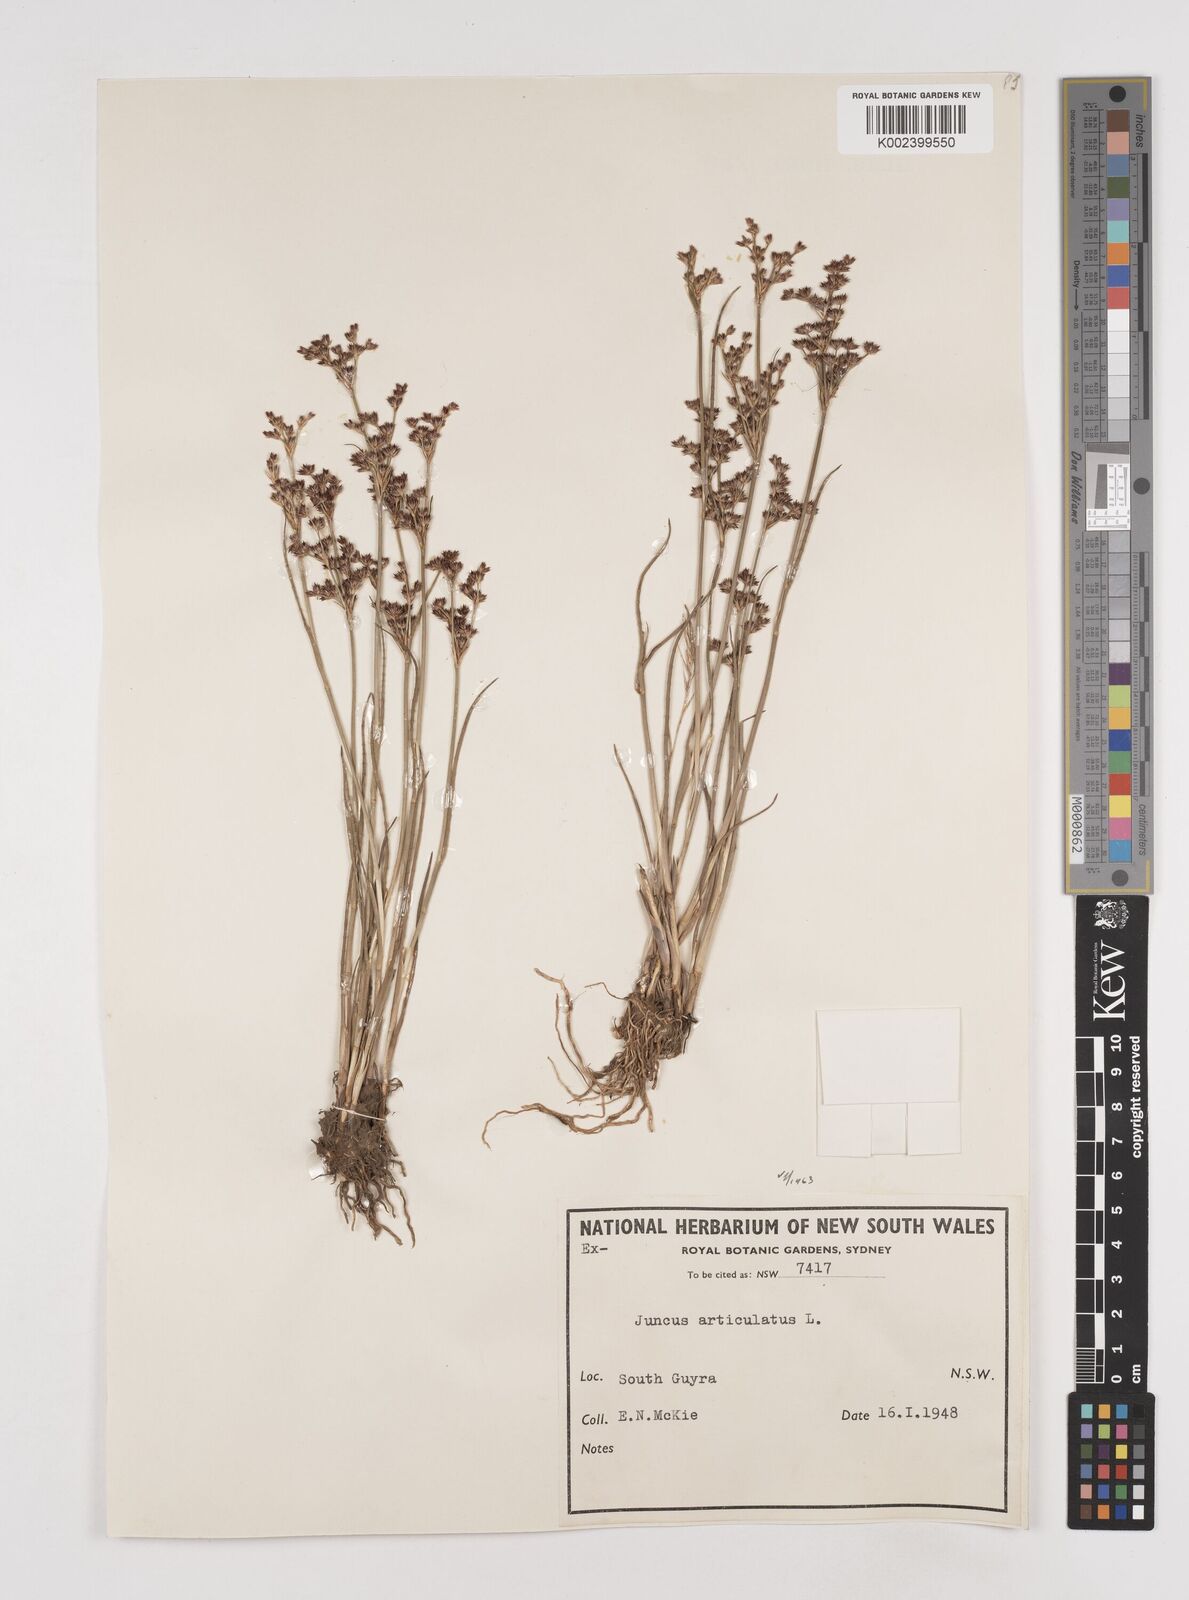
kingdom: Plantae
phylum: Tracheophyta
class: Liliopsida
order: Poales
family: Juncaceae
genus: Juncus
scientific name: Juncus articulatus
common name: Jointed rush
